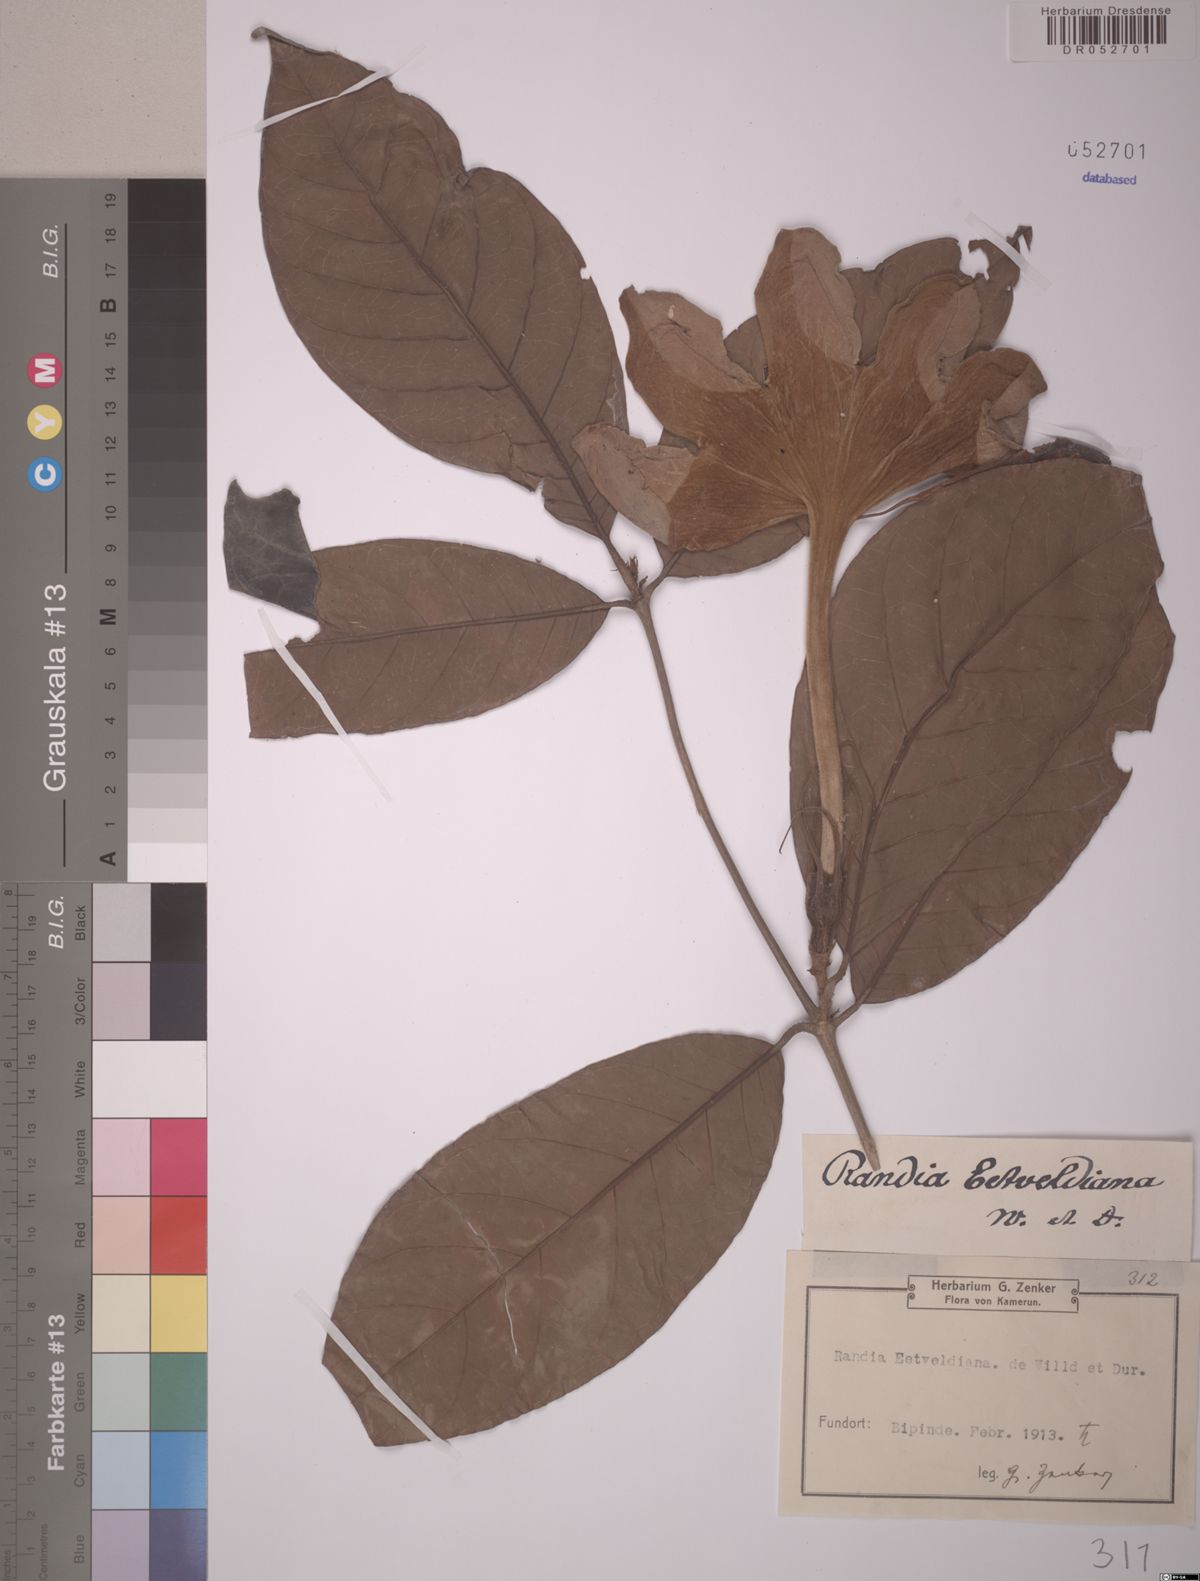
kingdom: Plantae
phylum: Tracheophyta
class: Magnoliopsida
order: Gentianales
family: Rubiaceae
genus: Rothmannia
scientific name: Rothmannia whitfieldii
